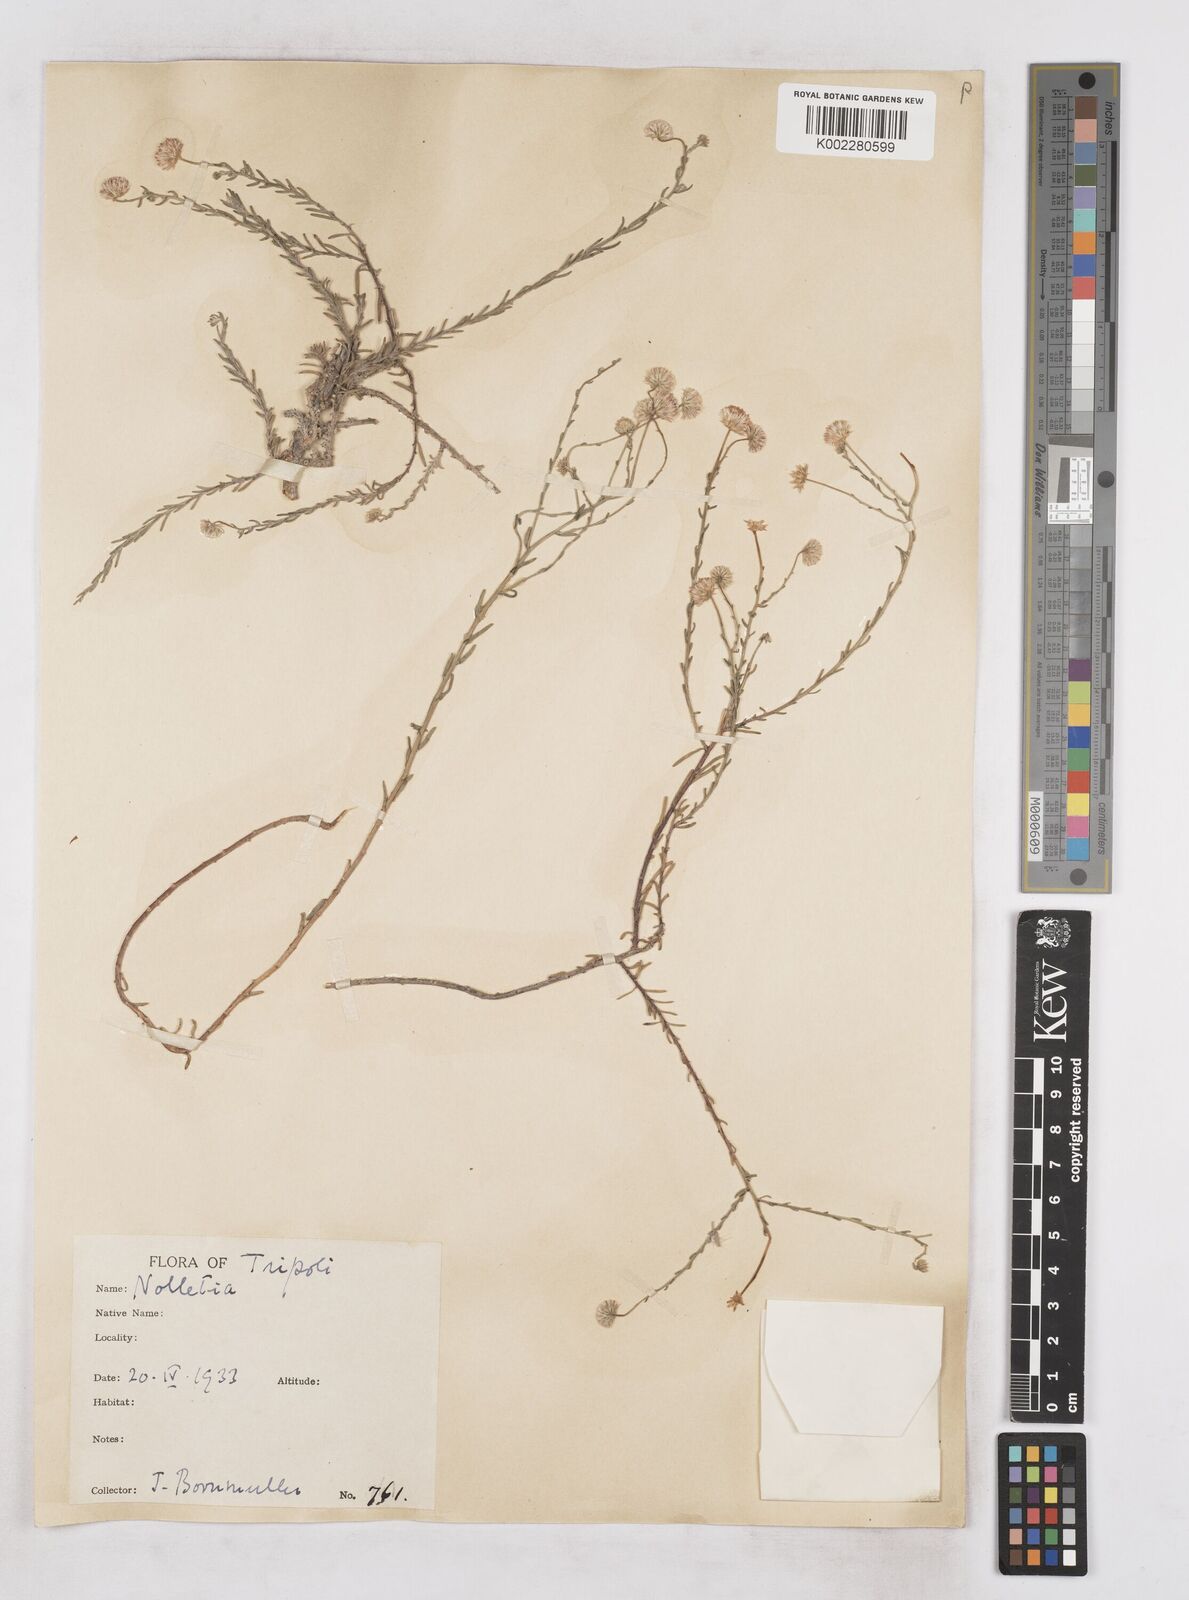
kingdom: Plantae
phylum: Tracheophyta
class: Magnoliopsida
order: Asterales
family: Asteraceae
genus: Nolletia
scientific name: Nolletia chrysocomoides
